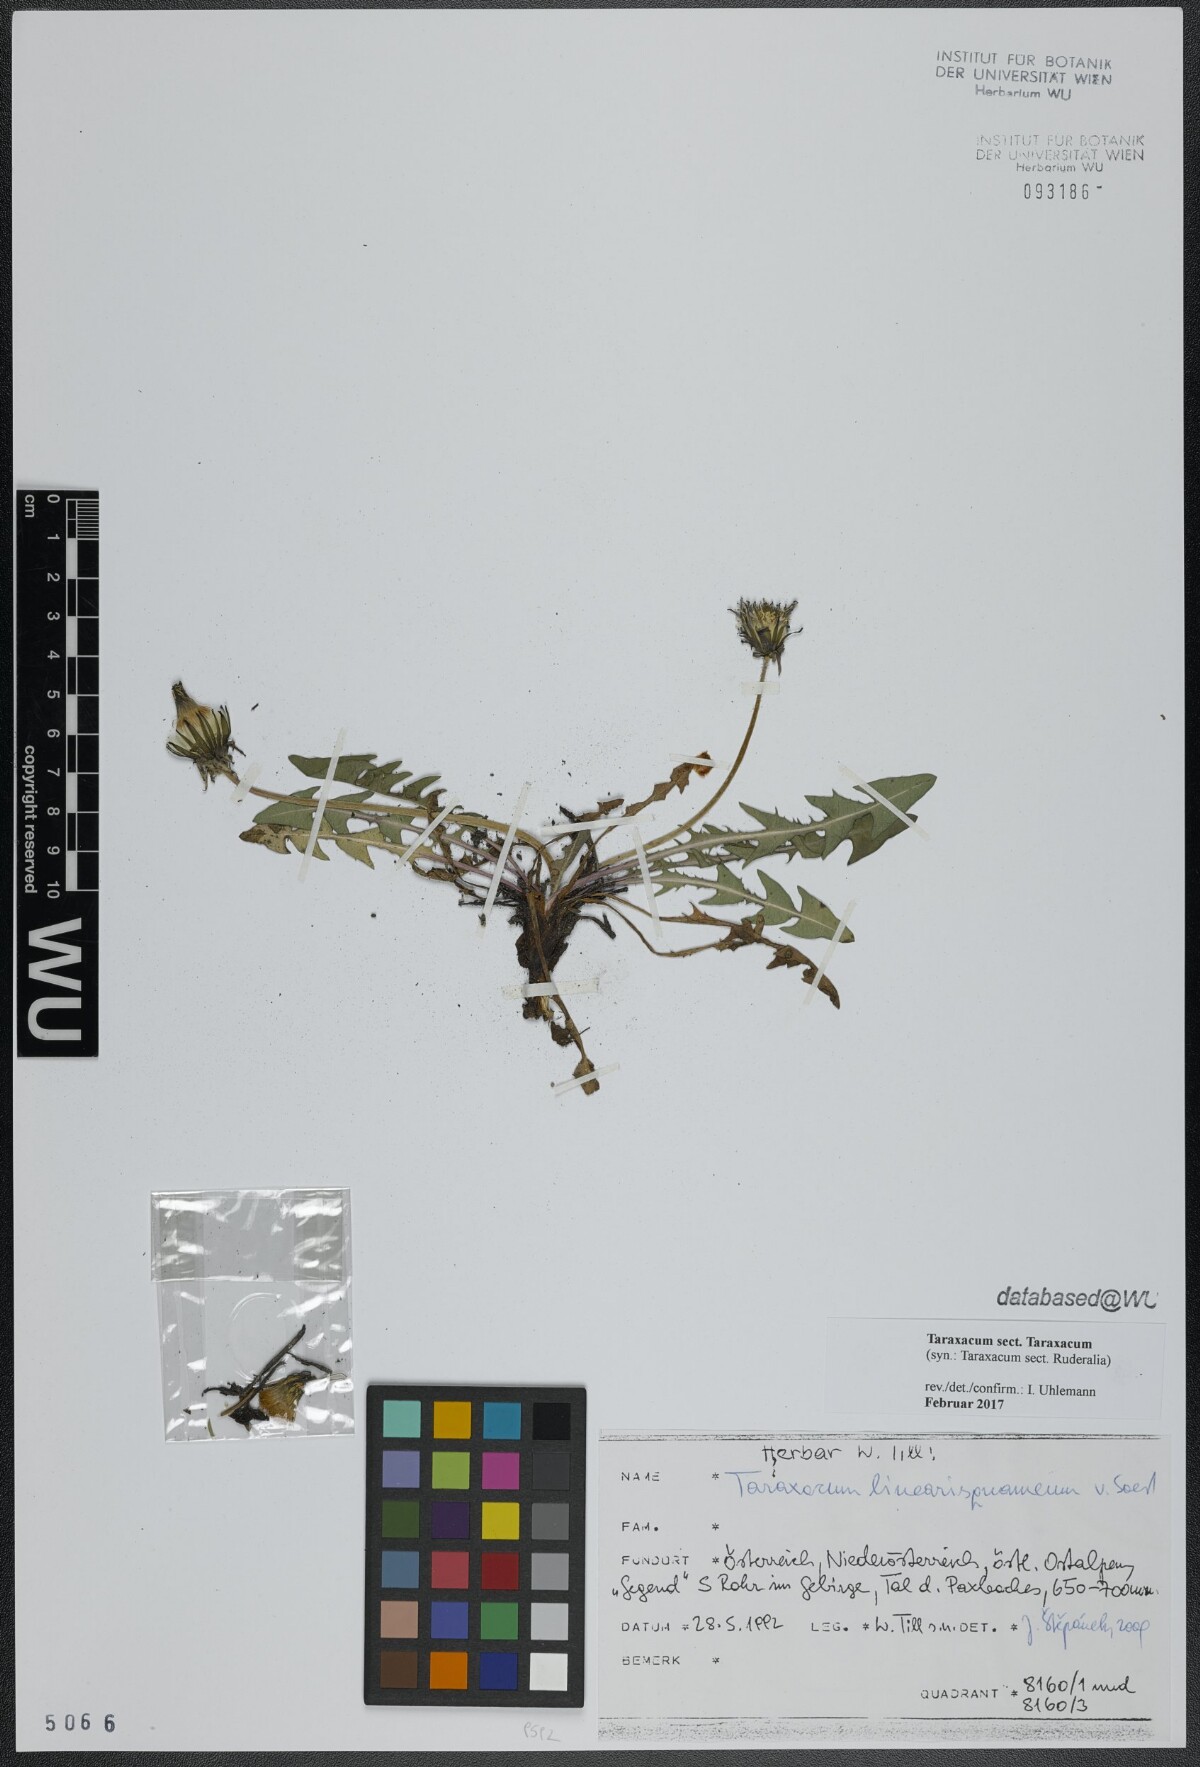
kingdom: Plantae
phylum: Tracheophyta
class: Magnoliopsida
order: Asterales
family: Asteraceae
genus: Taraxacum
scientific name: Taraxacum
